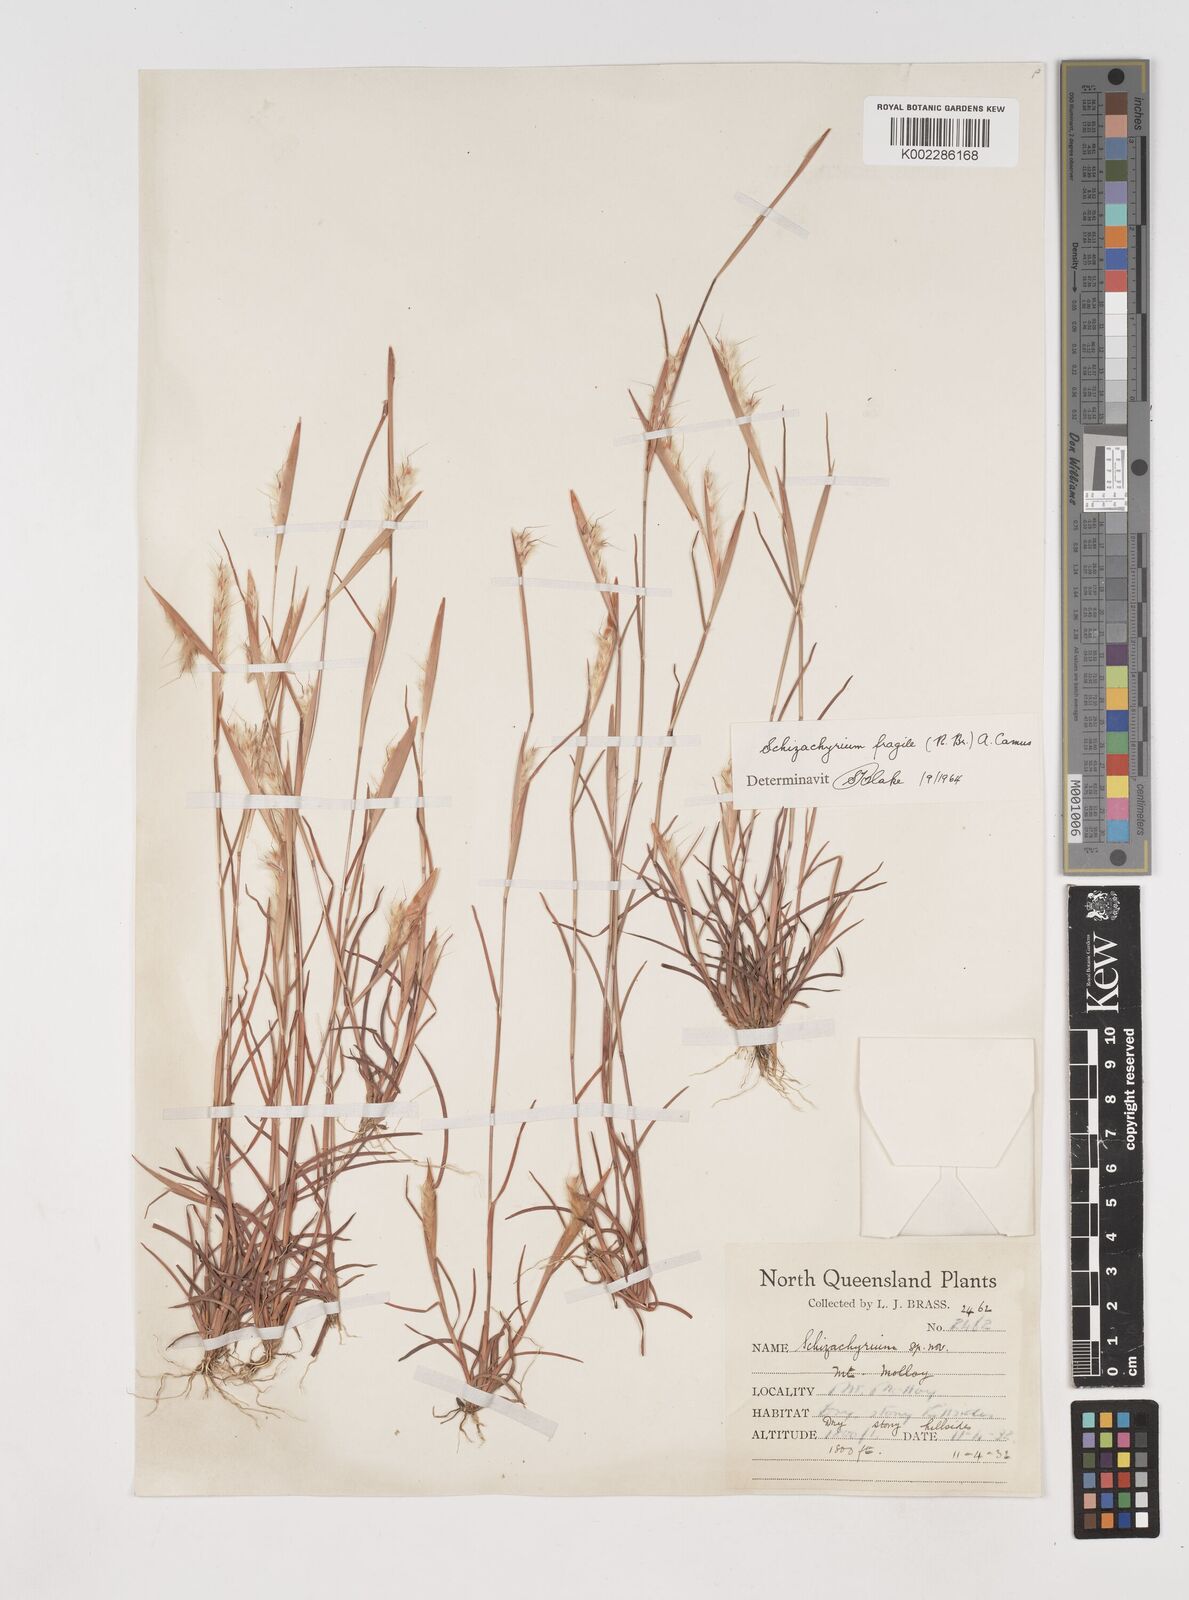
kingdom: Plantae
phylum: Tracheophyta
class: Liliopsida
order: Poales
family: Poaceae
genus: Schizachyrium
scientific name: Schizachyrium fragile
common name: Red spathe grass
